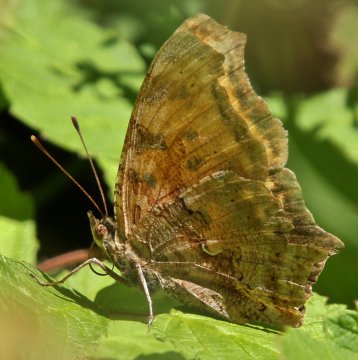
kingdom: Animalia
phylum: Arthropoda
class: Insecta
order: Lepidoptera
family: Nymphalidae
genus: Polygonia
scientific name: Polygonia comma
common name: Eastern Comma
